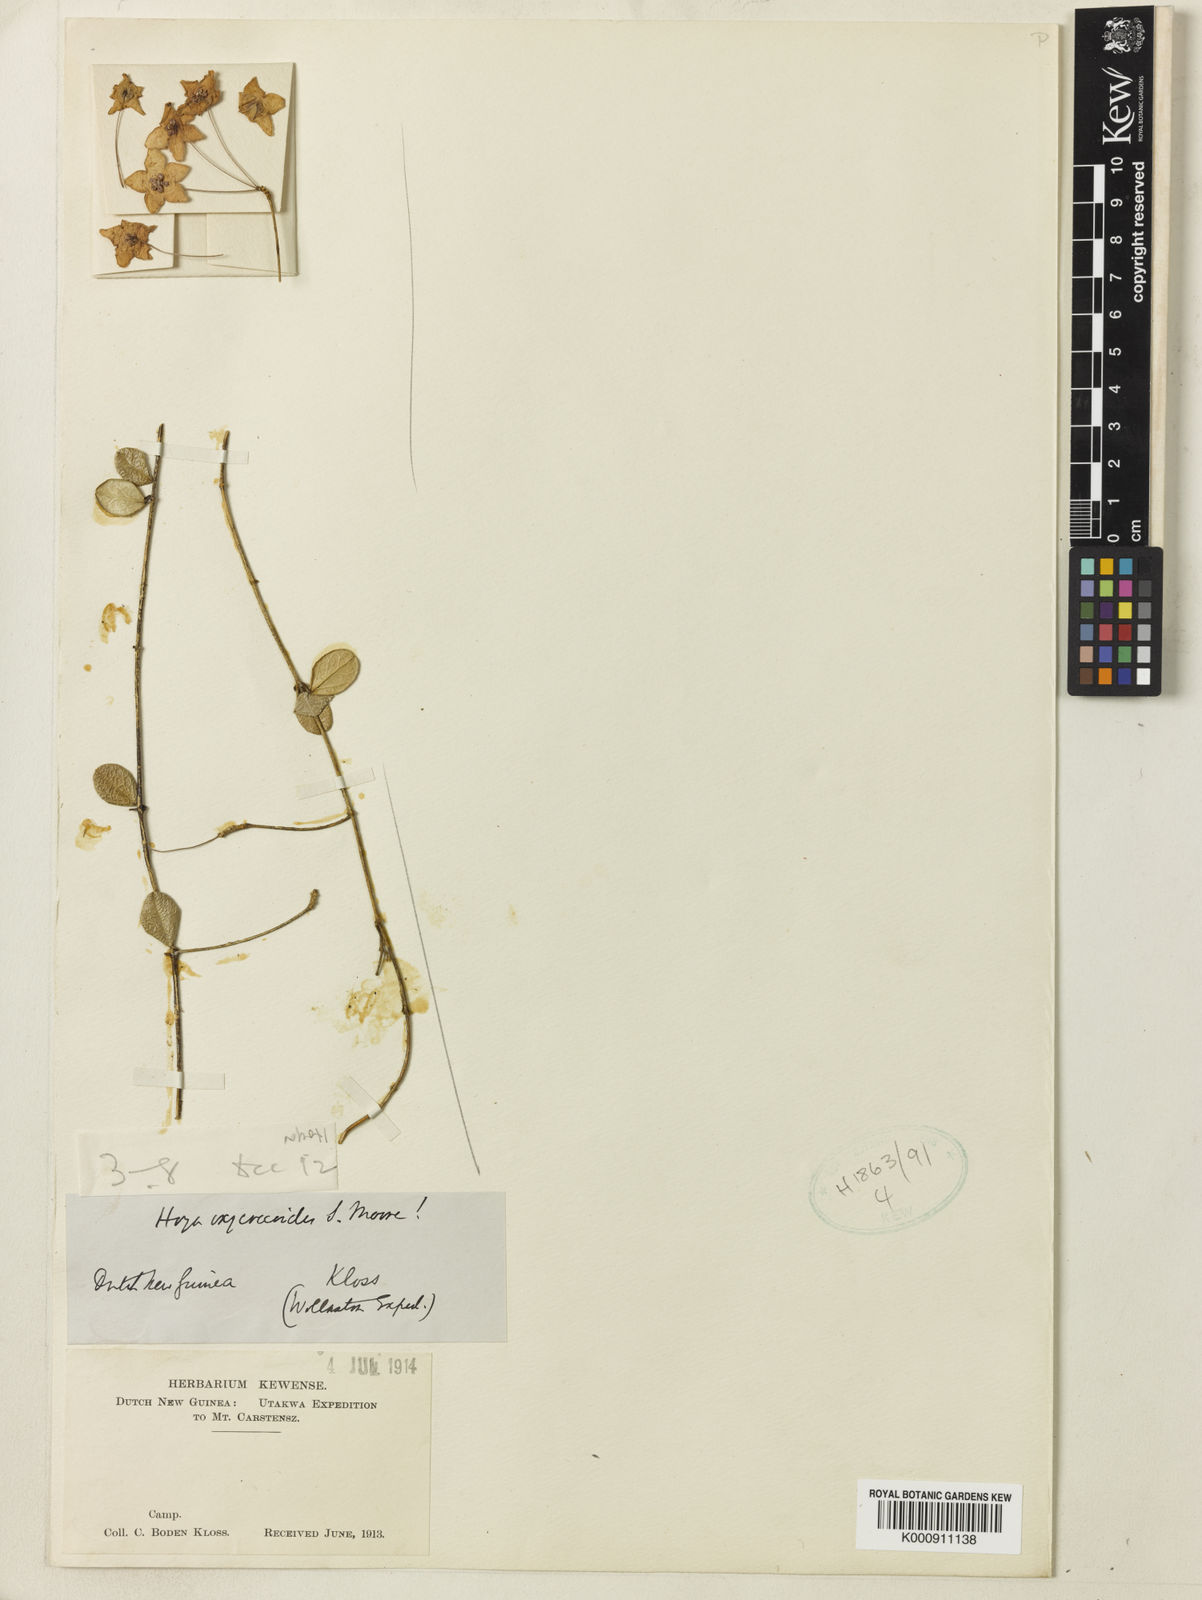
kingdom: Plantae
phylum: Tracheophyta
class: Magnoliopsida
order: Gentianales
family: Apocynaceae
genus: Hoya
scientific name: Hoya pulchella
